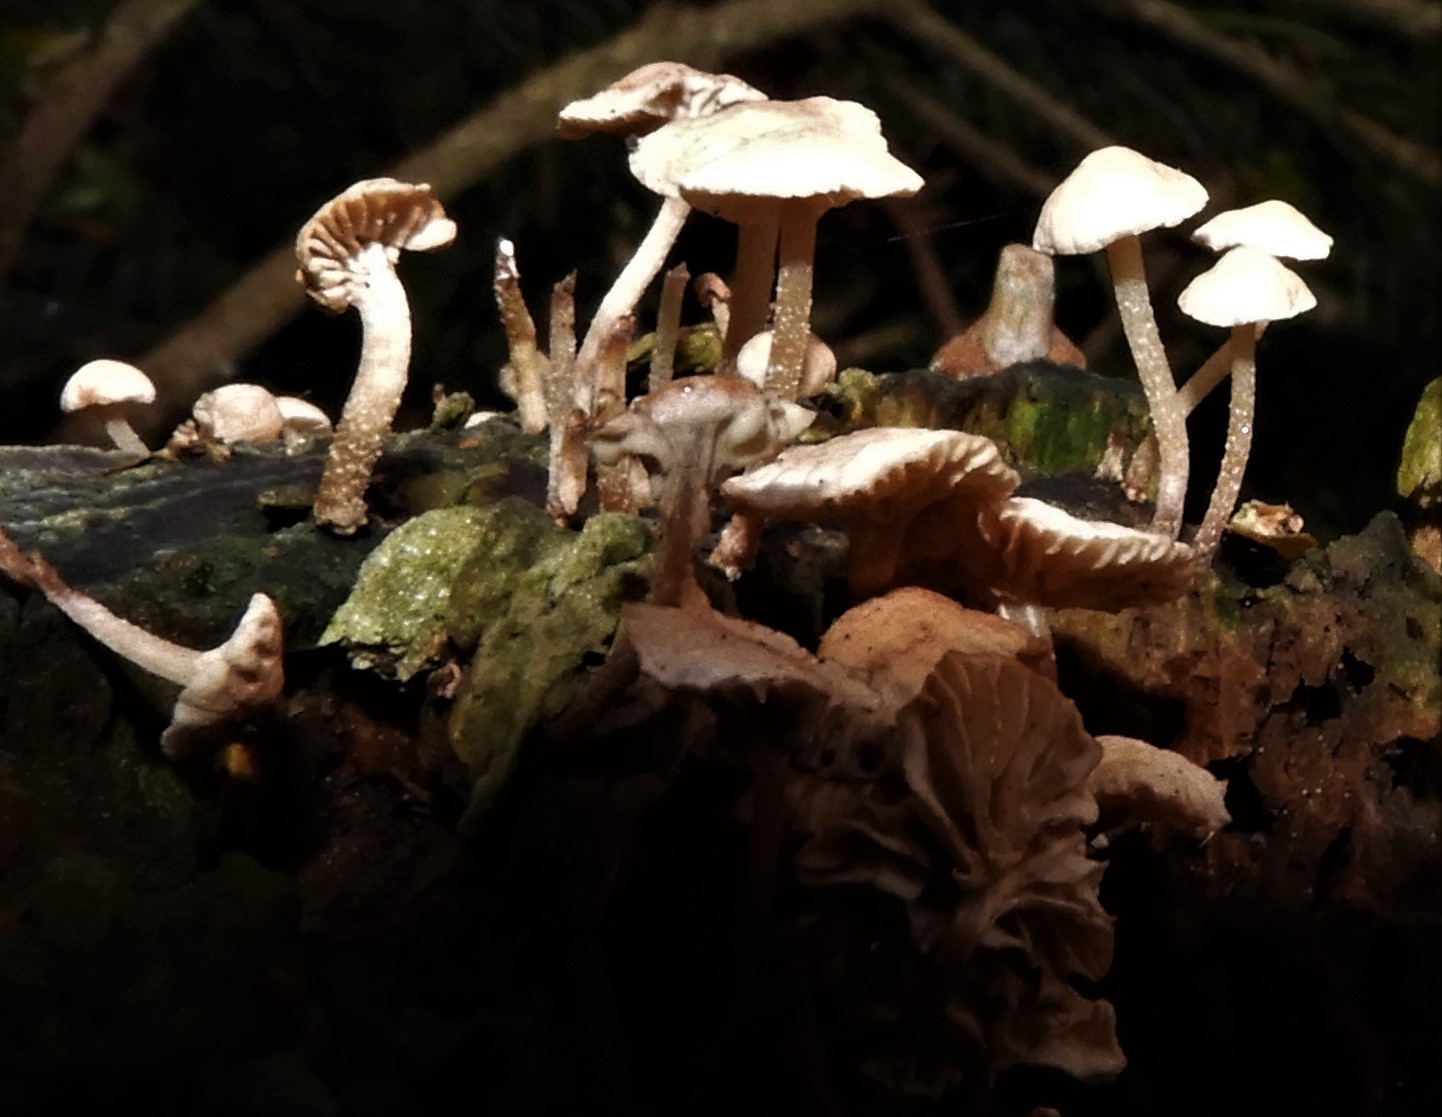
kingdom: Fungi
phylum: Basidiomycota
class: Agaricomycetes
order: Agaricales
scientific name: Agaricales
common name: champignonordenen
